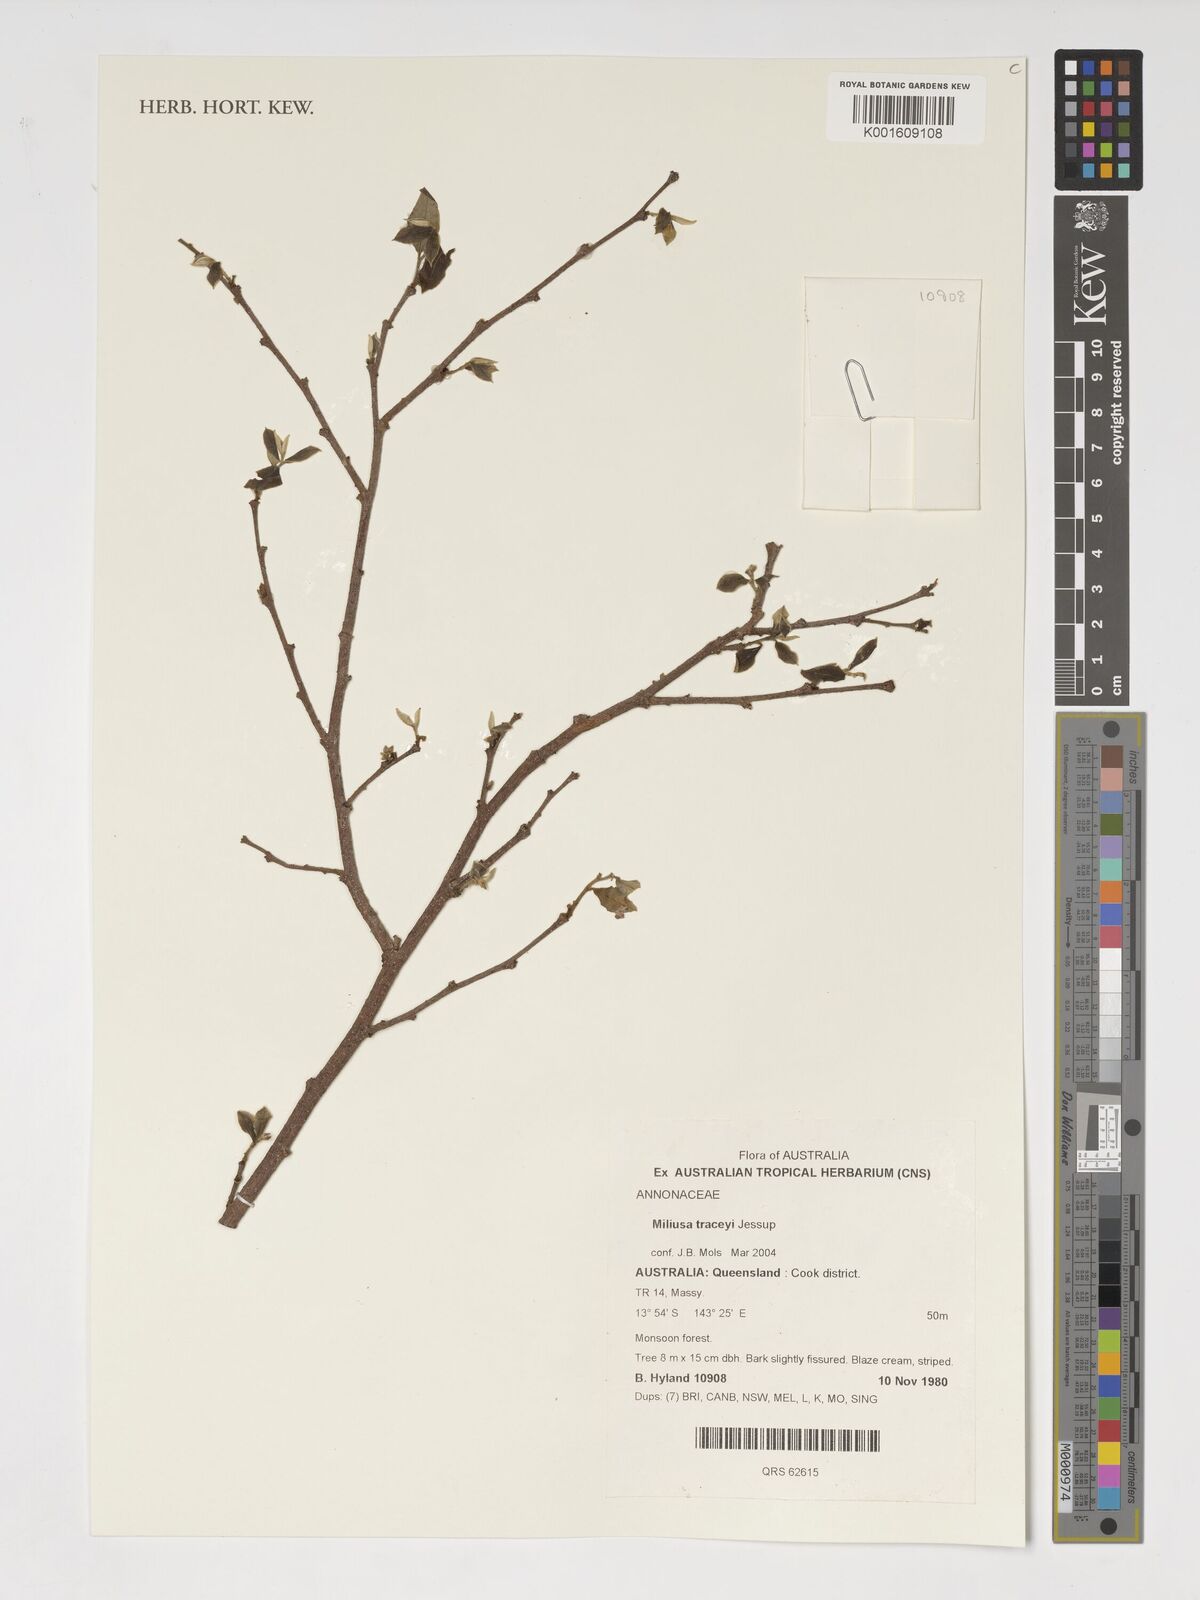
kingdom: Plantae
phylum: Tracheophyta
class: Magnoliopsida
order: Magnoliales
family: Annonaceae
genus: Miliusa
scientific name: Miliusa traceyi
